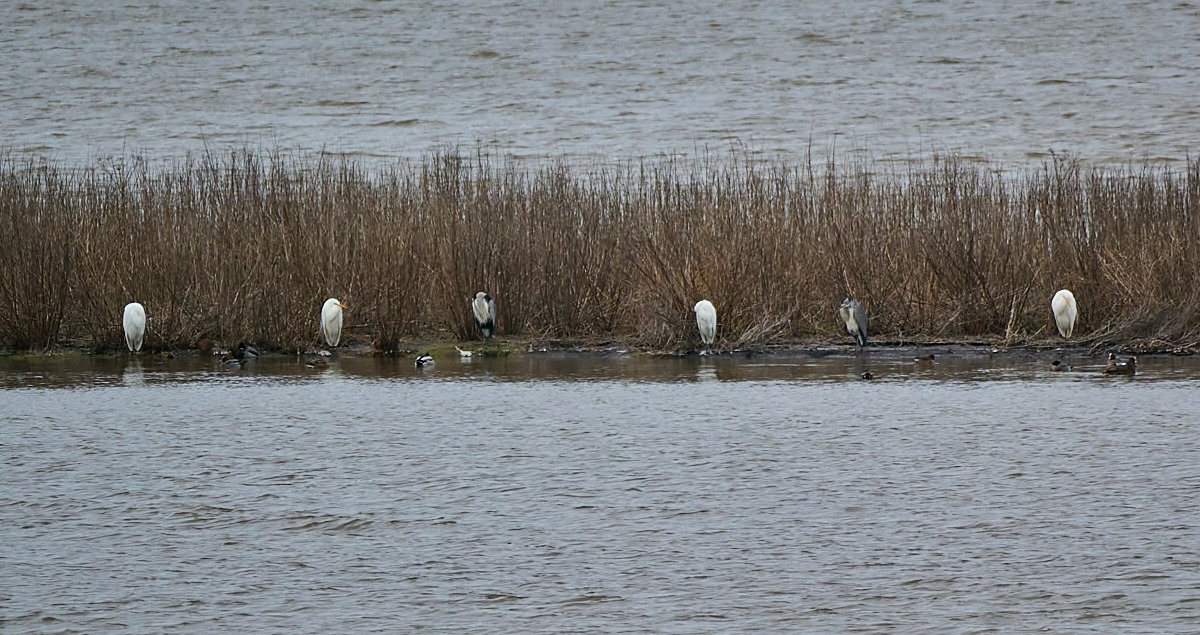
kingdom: Animalia
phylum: Chordata
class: Aves
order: Pelecaniformes
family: Ardeidae
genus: Ardea
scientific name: Ardea alba
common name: Sølvhejre
